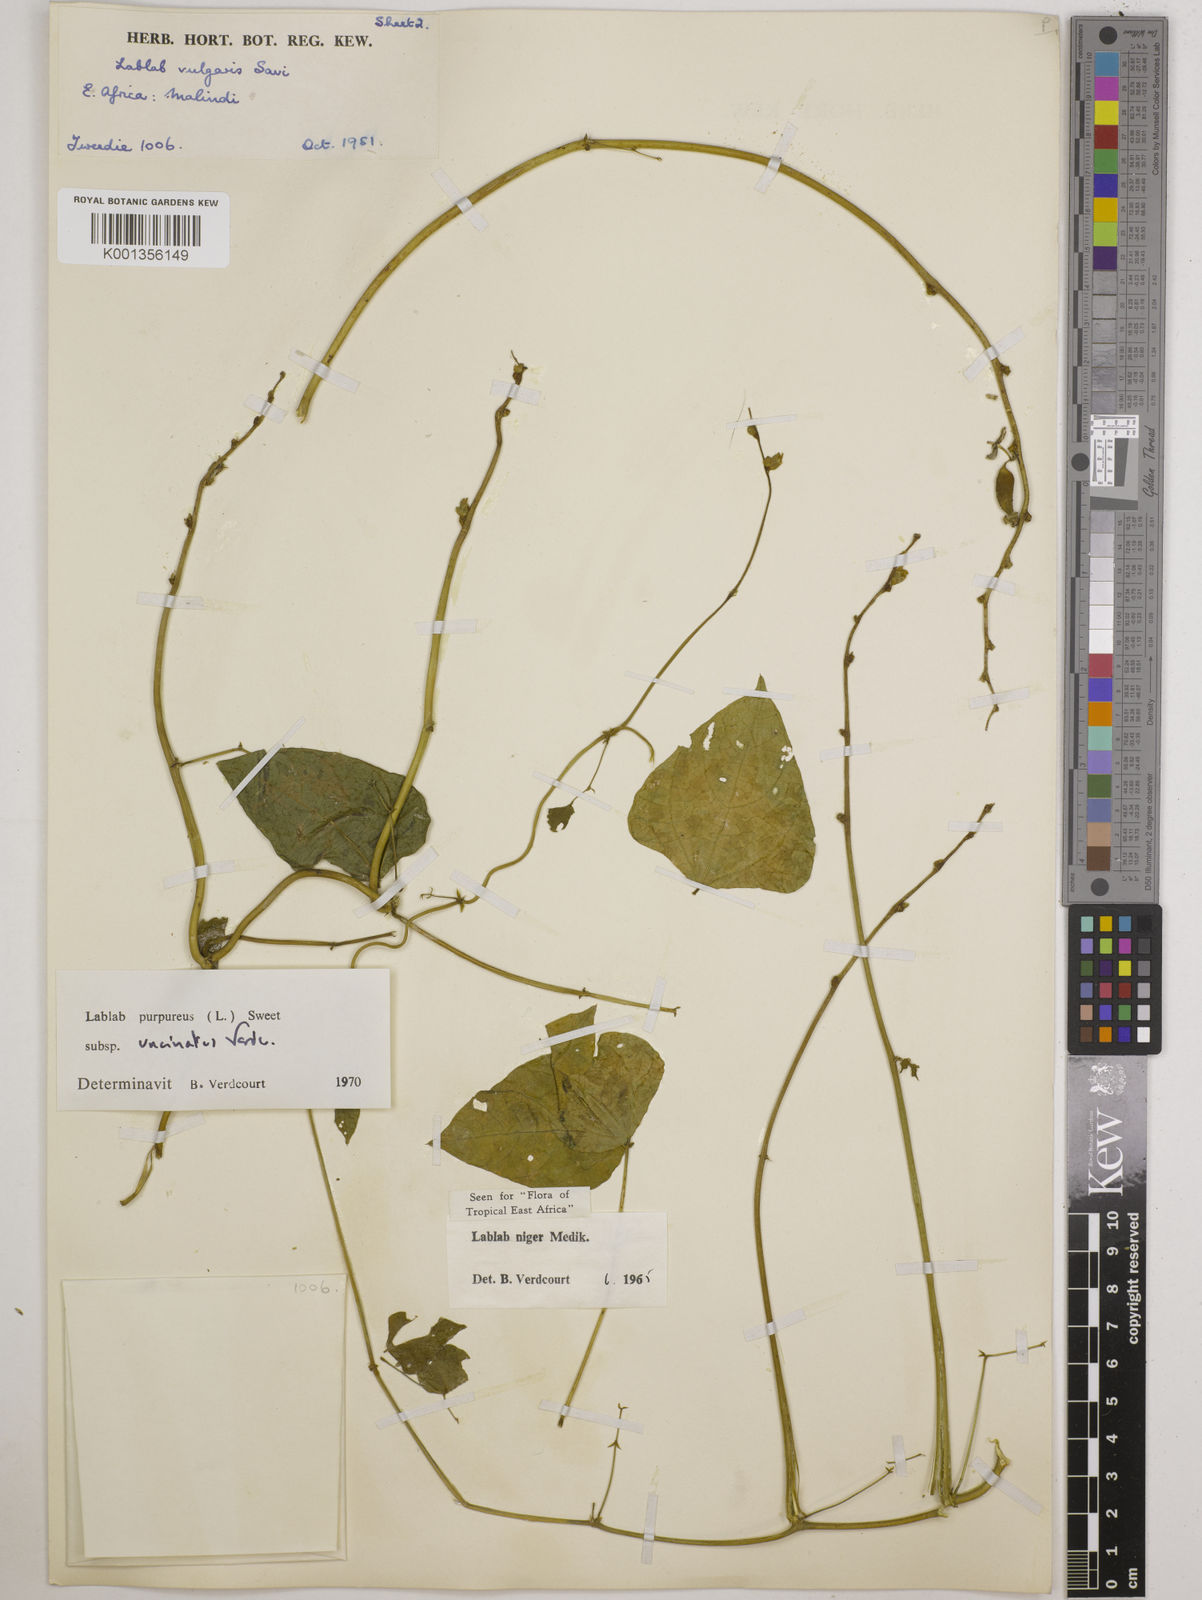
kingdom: Plantae
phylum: Tracheophyta
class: Magnoliopsida
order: Fabales
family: Fabaceae
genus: Lablab
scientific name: Lablab purpureus
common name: Lablab-bean
